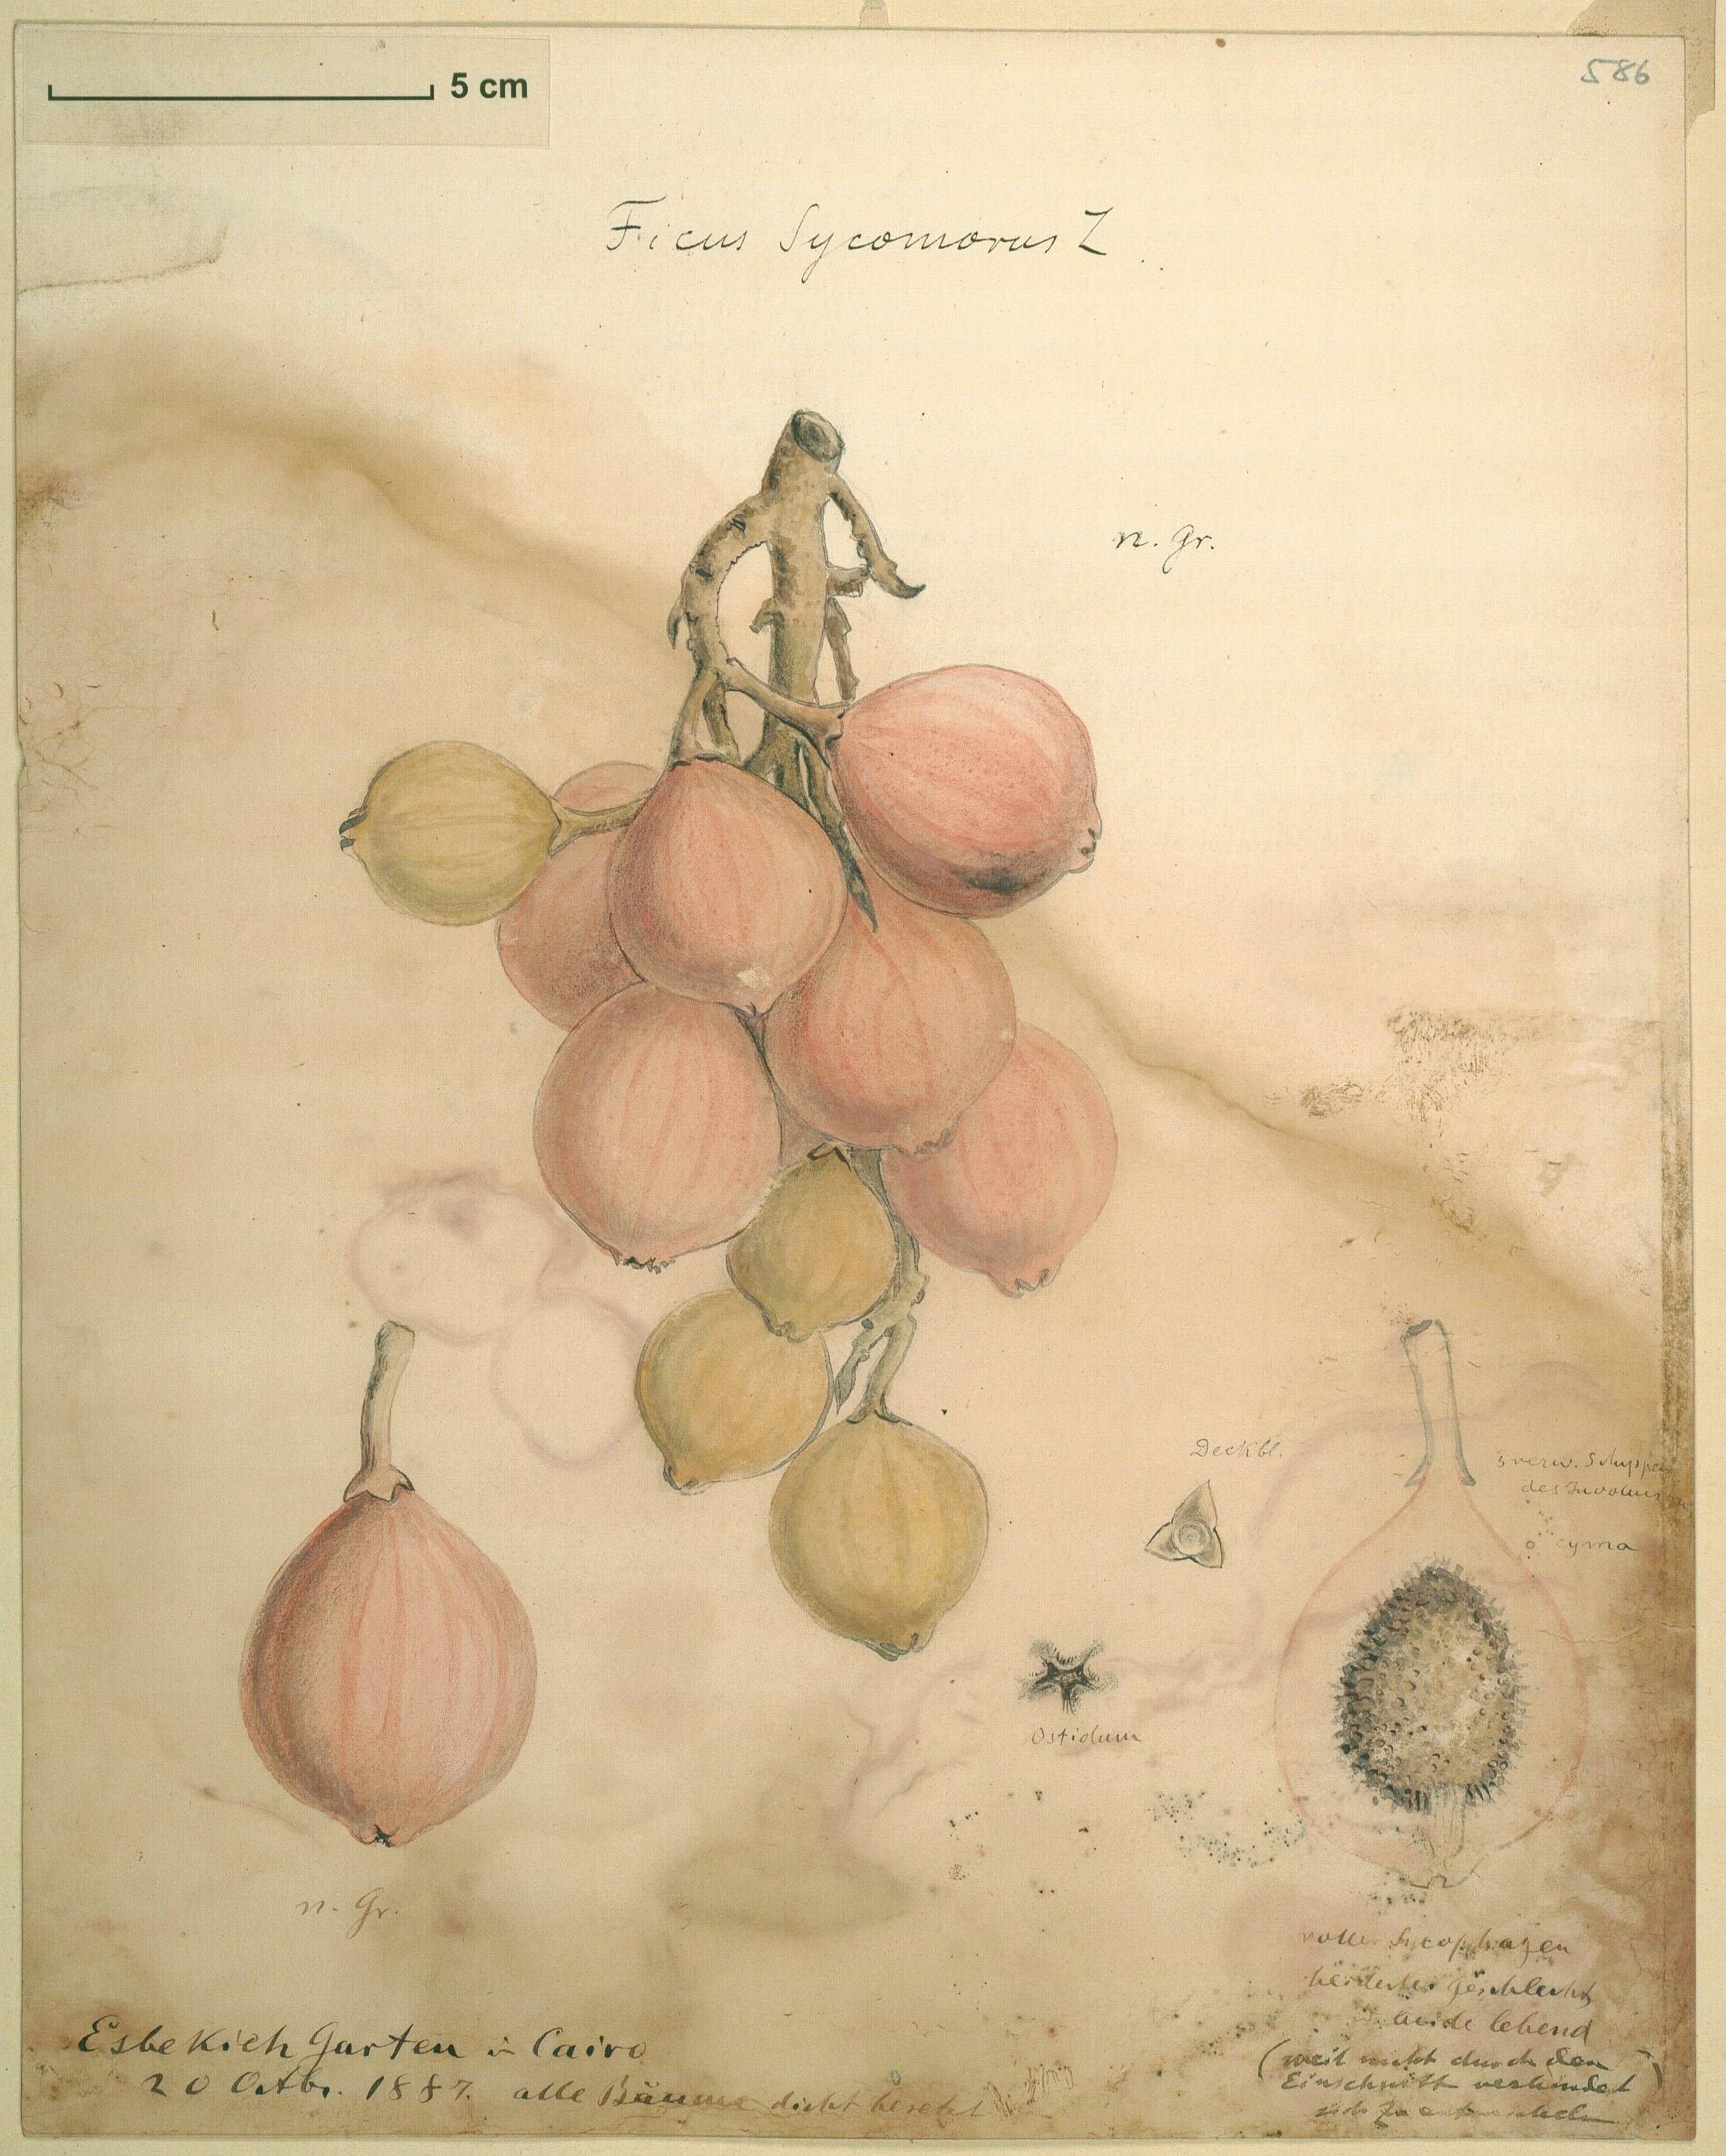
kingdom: Plantae
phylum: Tracheophyta
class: Magnoliopsida
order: Rosales
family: Moraceae
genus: Ficus
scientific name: Ficus sycomorus
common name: Sycomore
